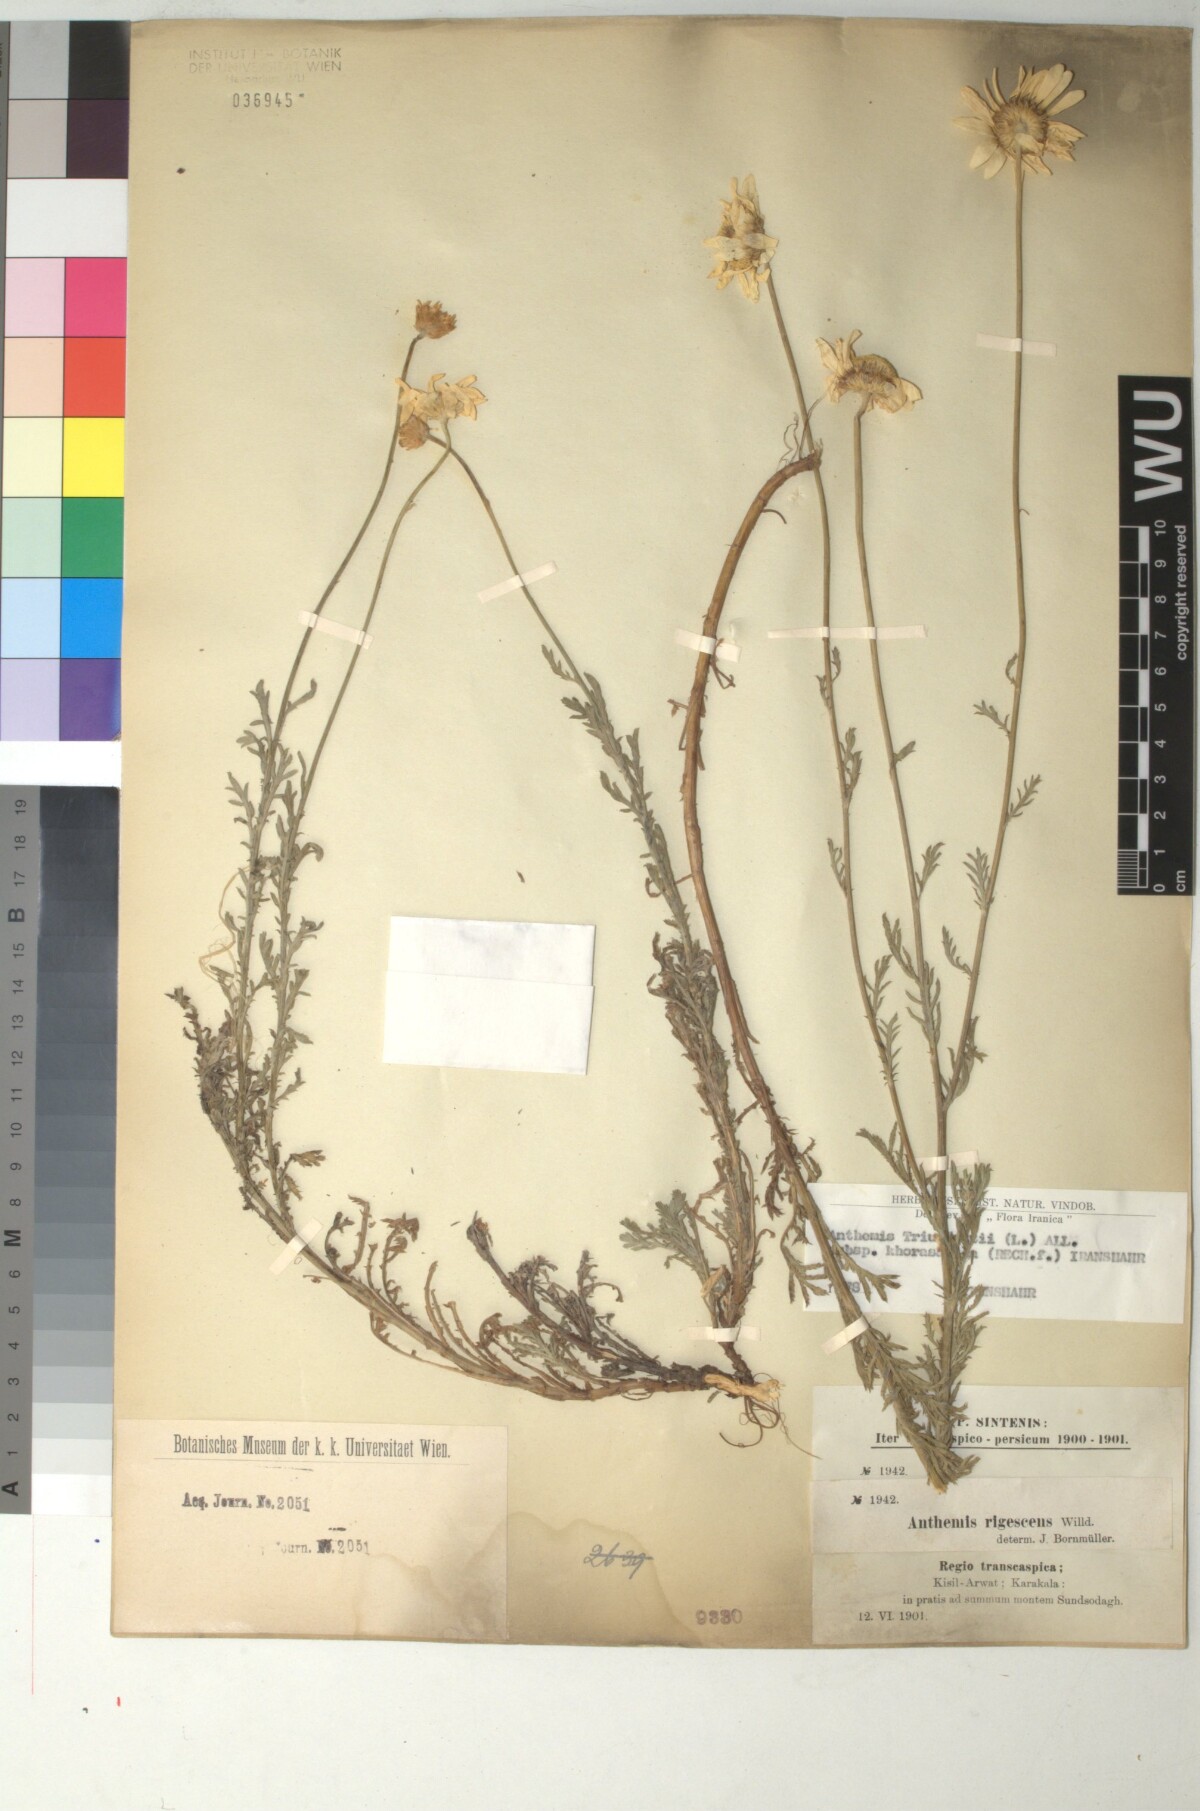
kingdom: Plantae
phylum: Tracheophyta
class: Magnoliopsida
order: Asterales
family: Asteraceae
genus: Cota
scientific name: Cota austriaca
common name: Austrian chamomile
